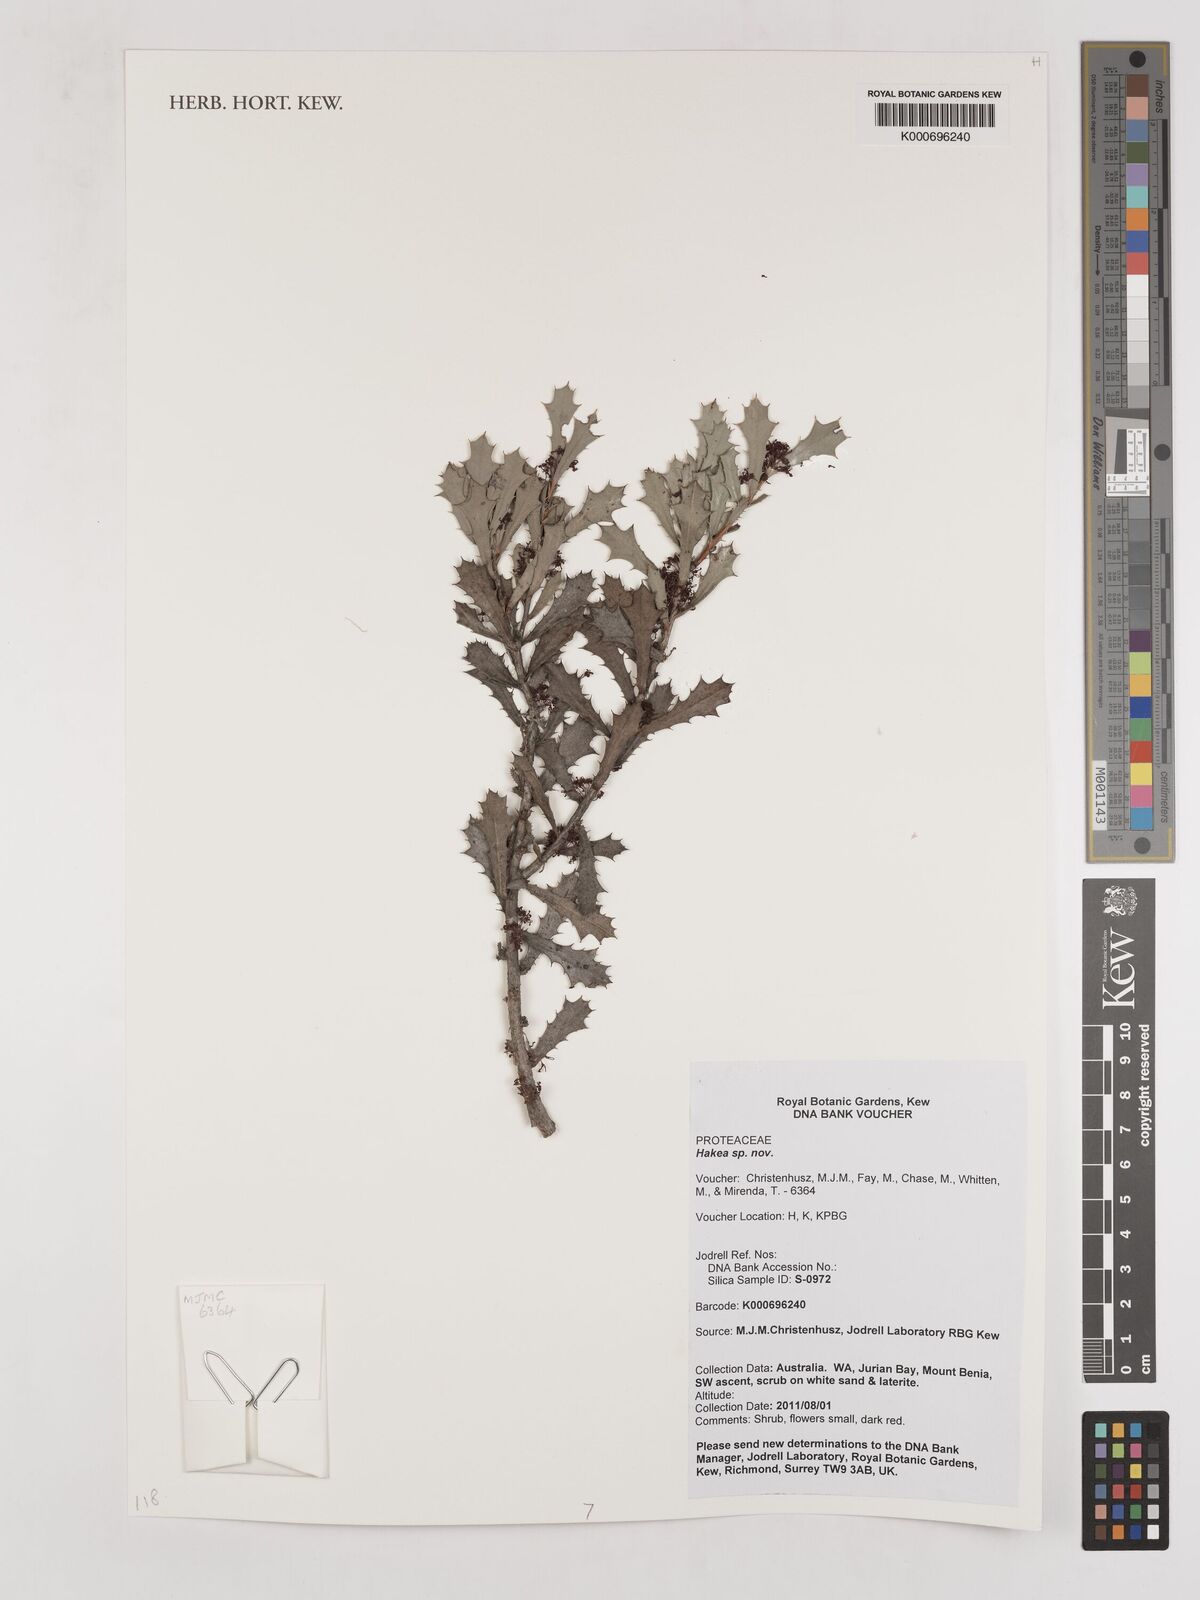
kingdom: Plantae
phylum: Tracheophyta
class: Magnoliopsida
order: Proteales
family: Proteaceae
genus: Hakea
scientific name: Hakea
